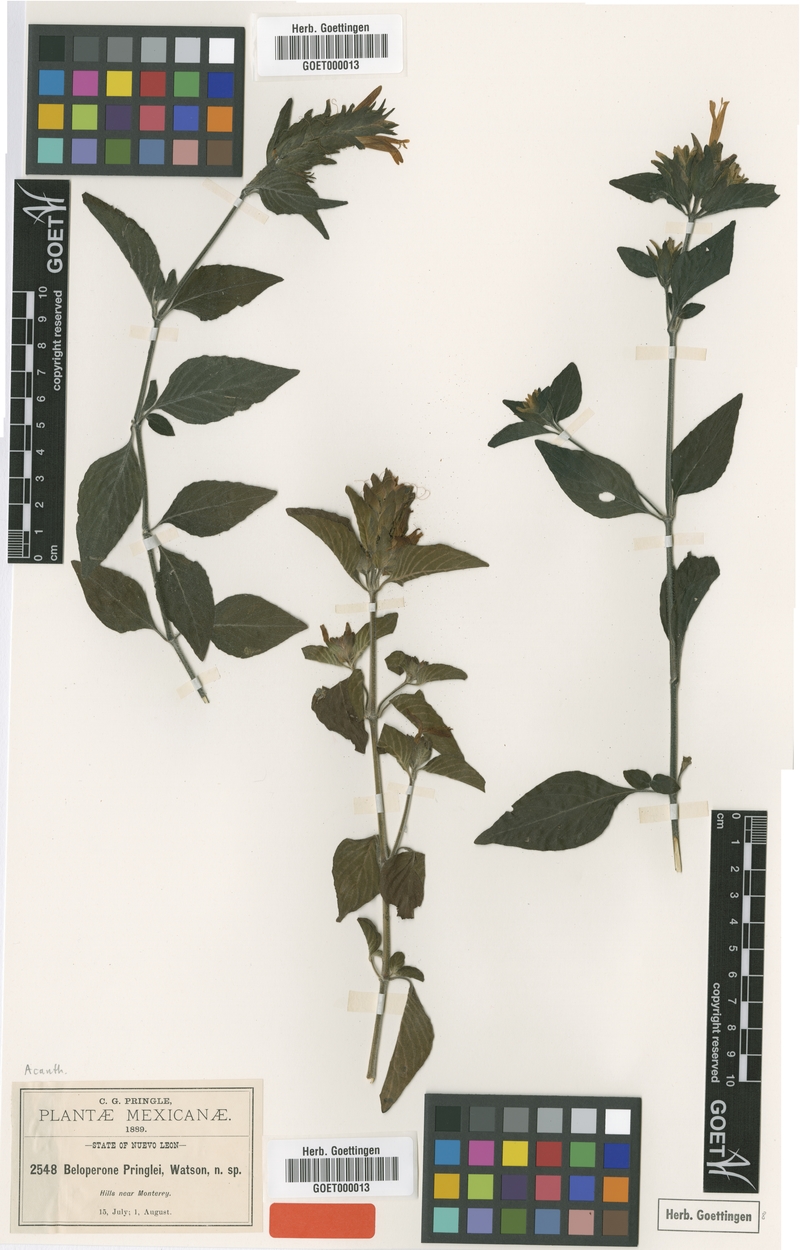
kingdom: Plantae
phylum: Tracheophyta
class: Magnoliopsida
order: Lamiales
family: Acanthaceae
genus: Justicia
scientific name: Justicia brandegeeana
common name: Shrimpplant
